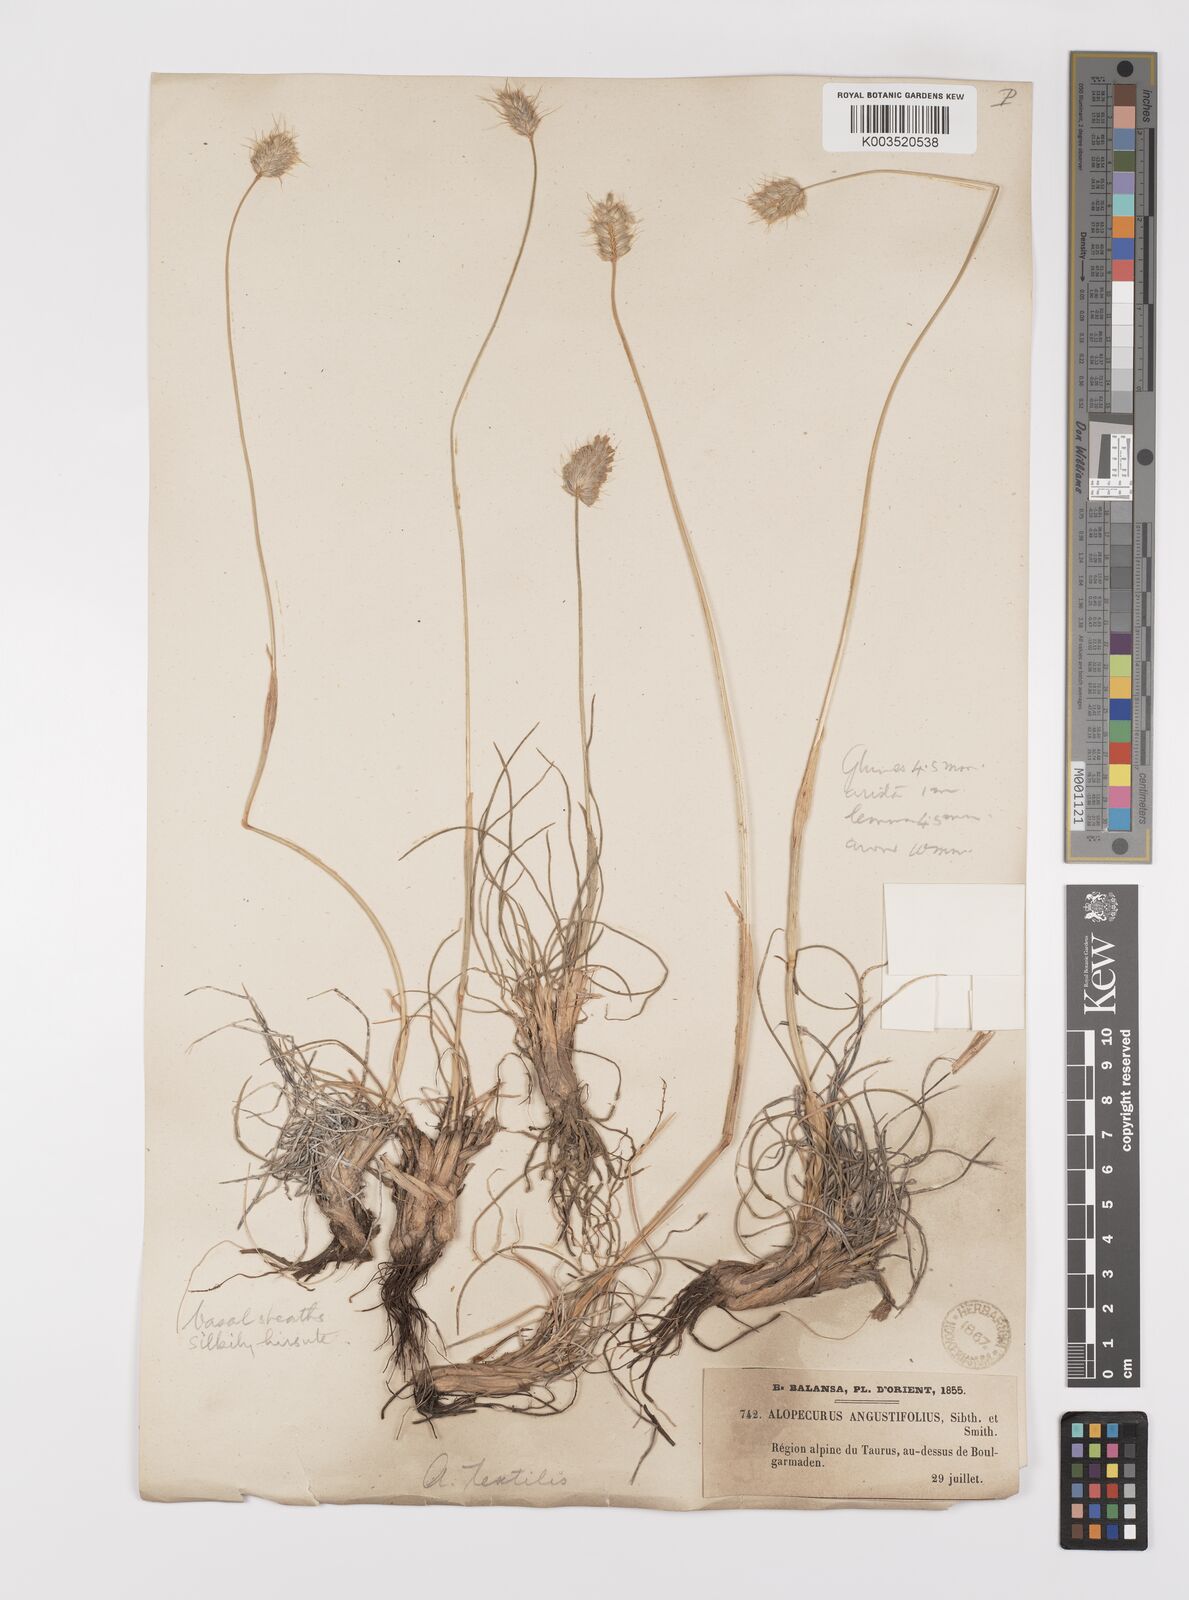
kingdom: Plantae
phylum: Tracheophyta
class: Liliopsida
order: Poales
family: Poaceae
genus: Alopecurus
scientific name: Alopecurus textilis
